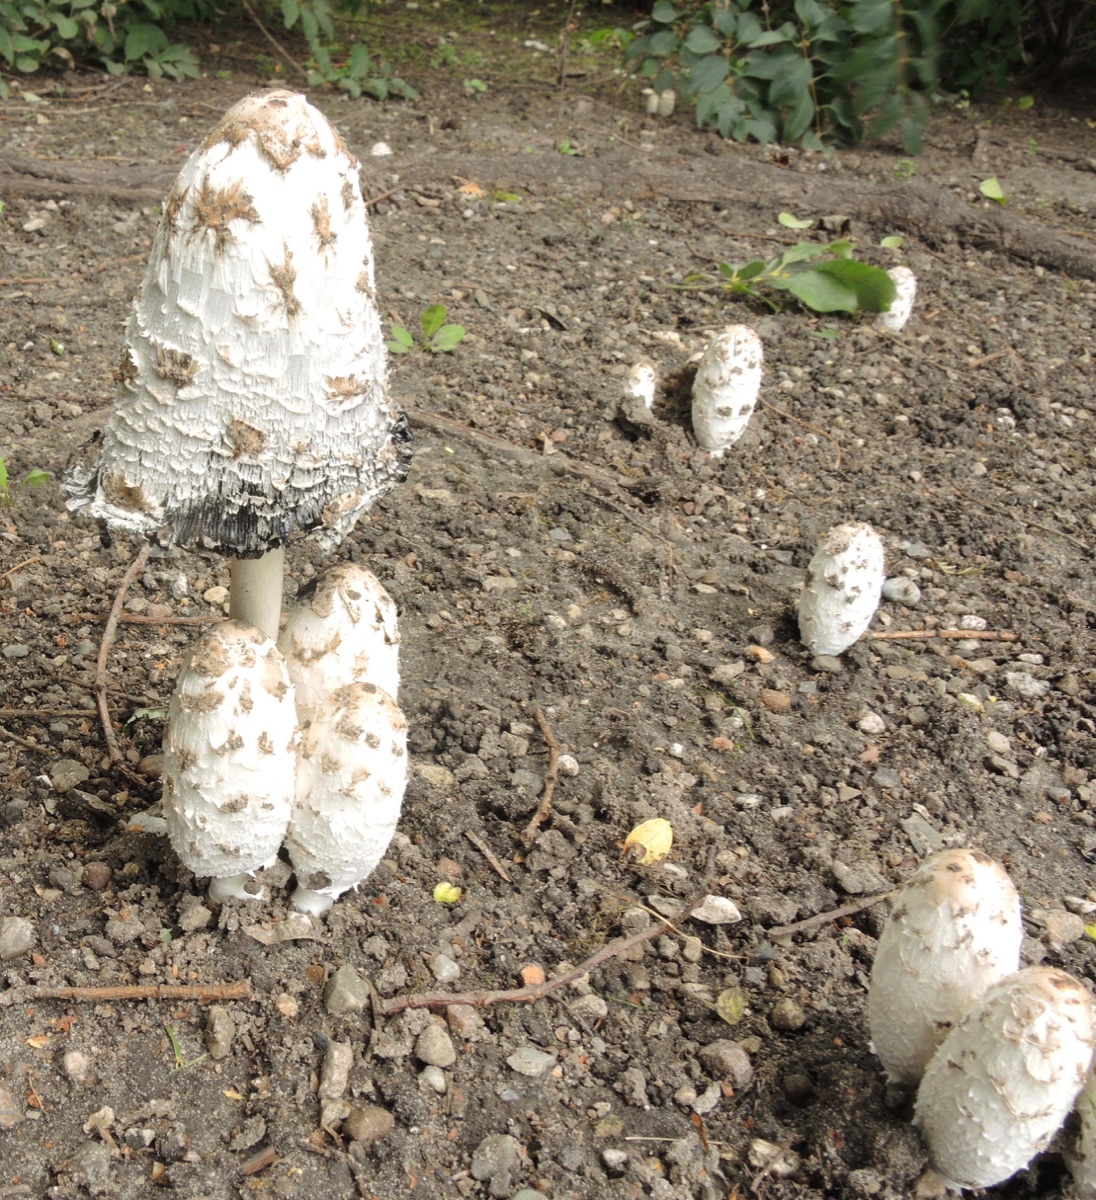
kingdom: Fungi
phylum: Basidiomycota
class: Agaricomycetes
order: Agaricales
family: Agaricaceae
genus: Coprinus
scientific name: Coprinus comatus
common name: stor parykhat
